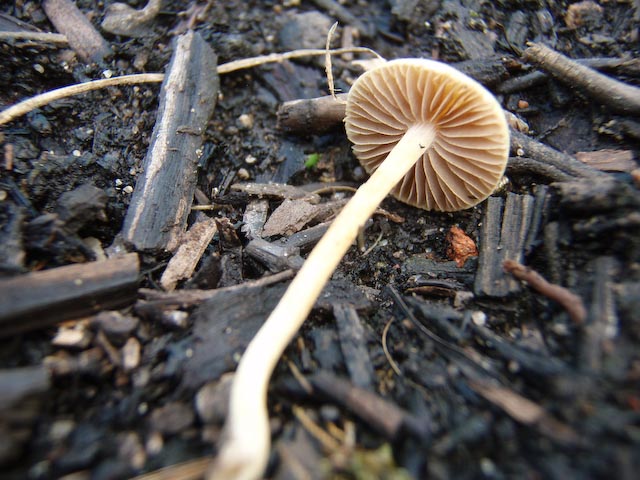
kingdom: Fungi
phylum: Basidiomycota
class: Agaricomycetes
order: Agaricales
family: Strophariaceae
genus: Agrocybe
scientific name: Agrocybe pediades
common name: almindelig agerhat
